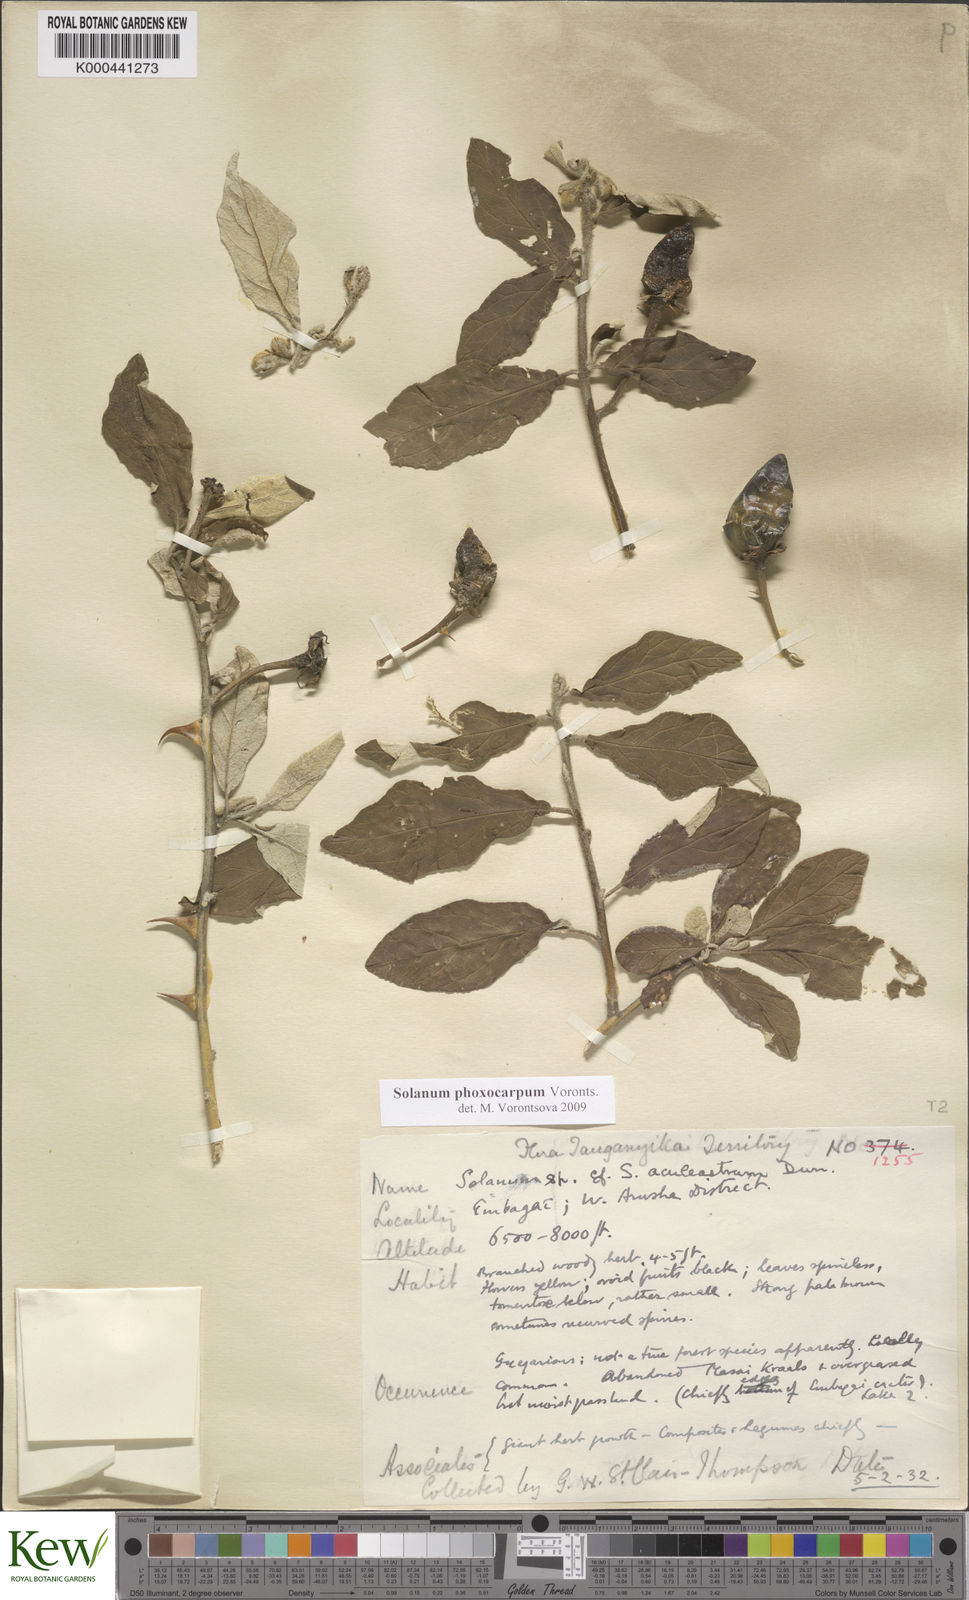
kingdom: Plantae
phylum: Tracheophyta
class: Magnoliopsida
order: Solanales
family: Solanaceae
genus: Solanum
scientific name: Solanum phoxocarpum
